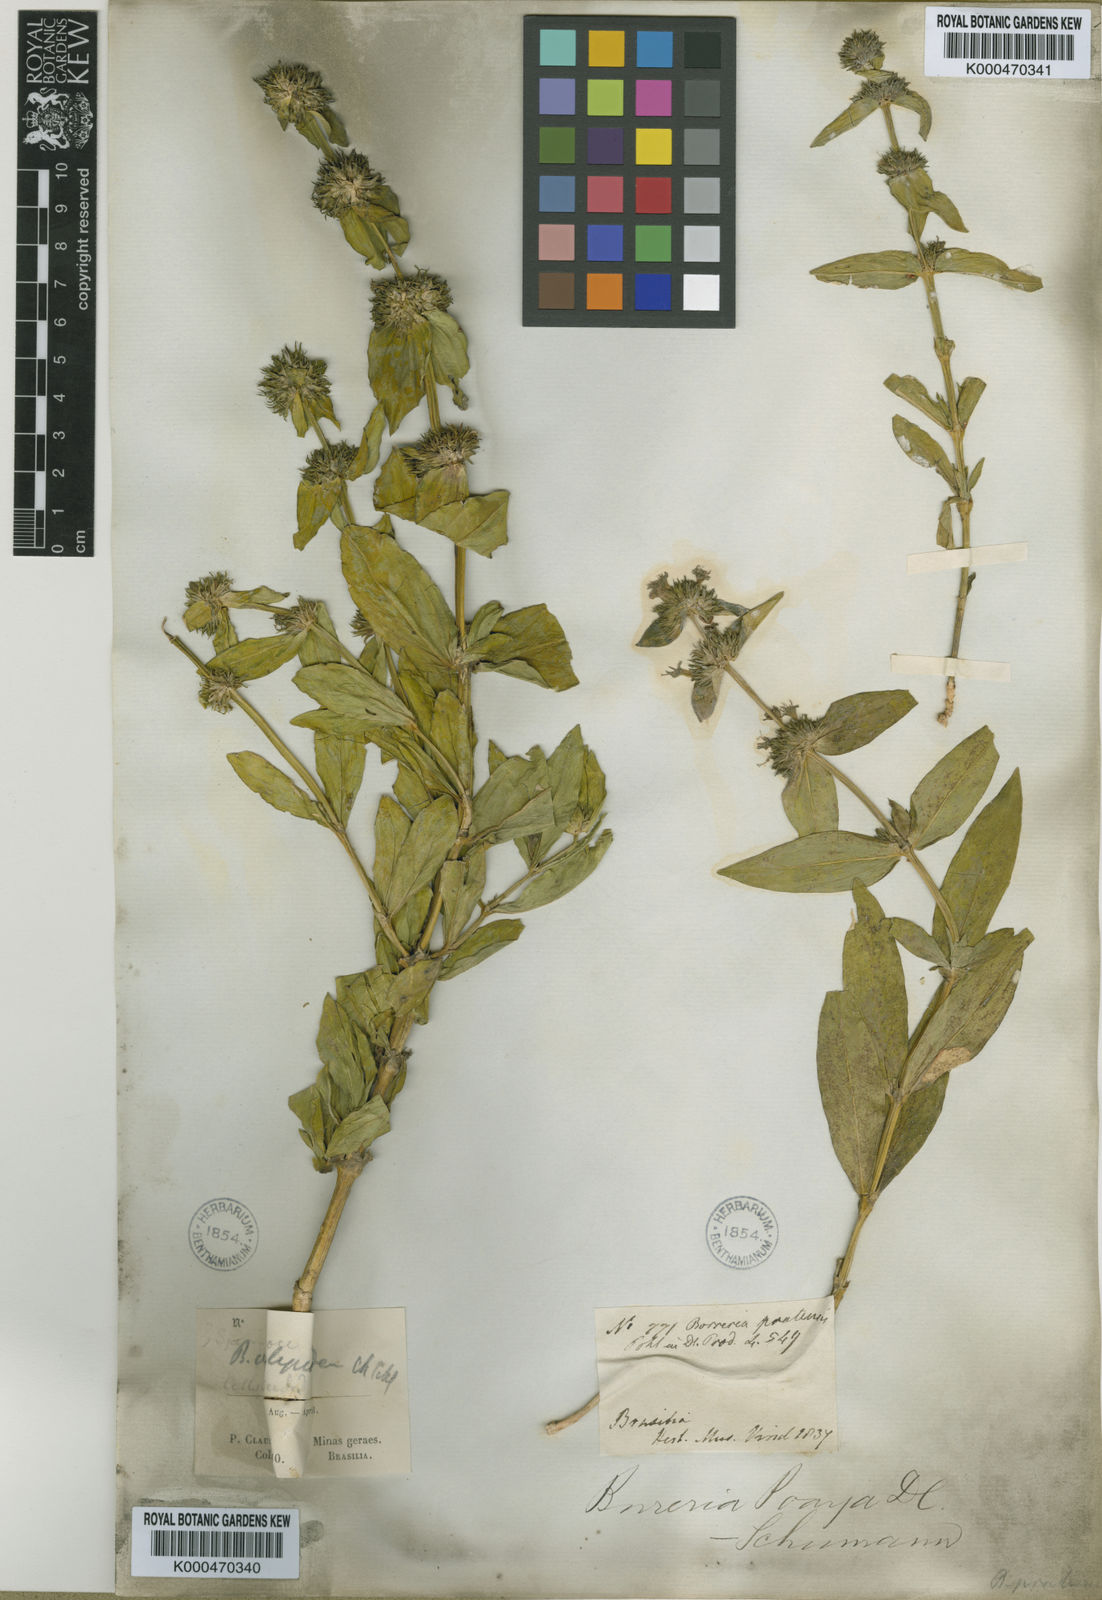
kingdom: Plantae
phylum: Tracheophyta
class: Magnoliopsida
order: Gentianales
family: Rubiaceae
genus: Spermacoce
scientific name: Spermacoce poaya
